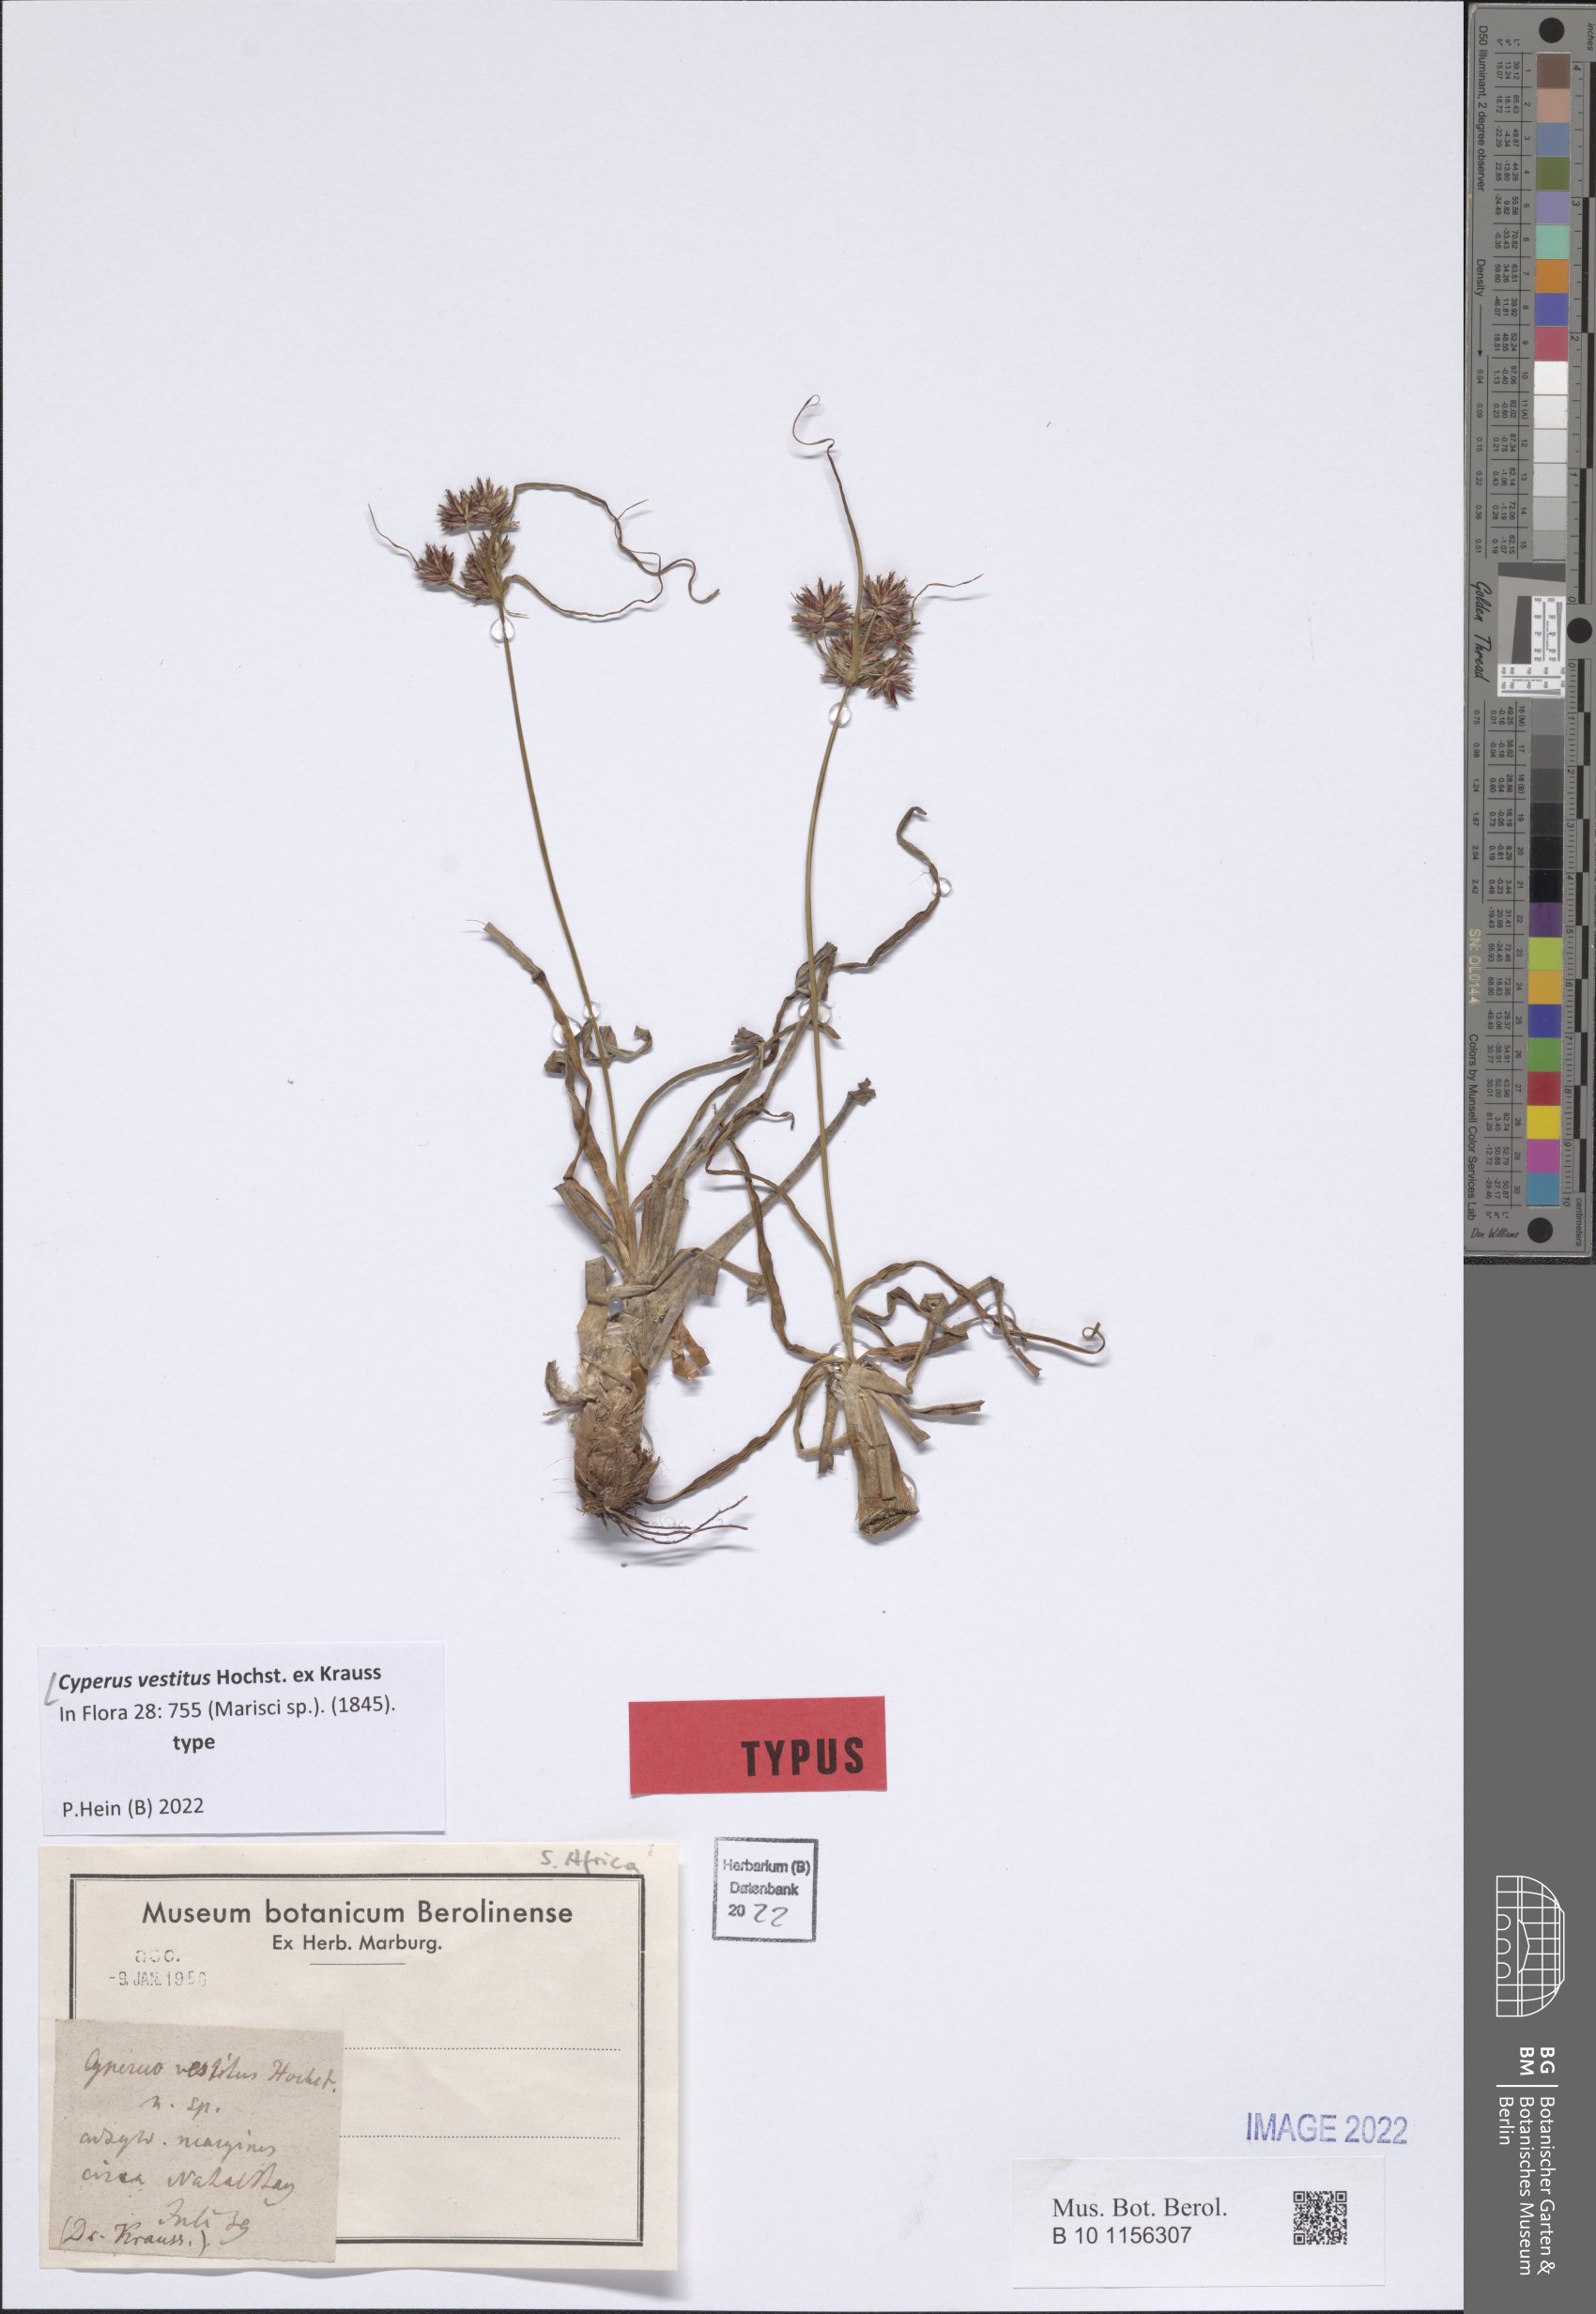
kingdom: Plantae
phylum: Tracheophyta
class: Liliopsida
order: Poales
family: Cyperaceae
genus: Cyperus
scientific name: Cyperus vestitus
